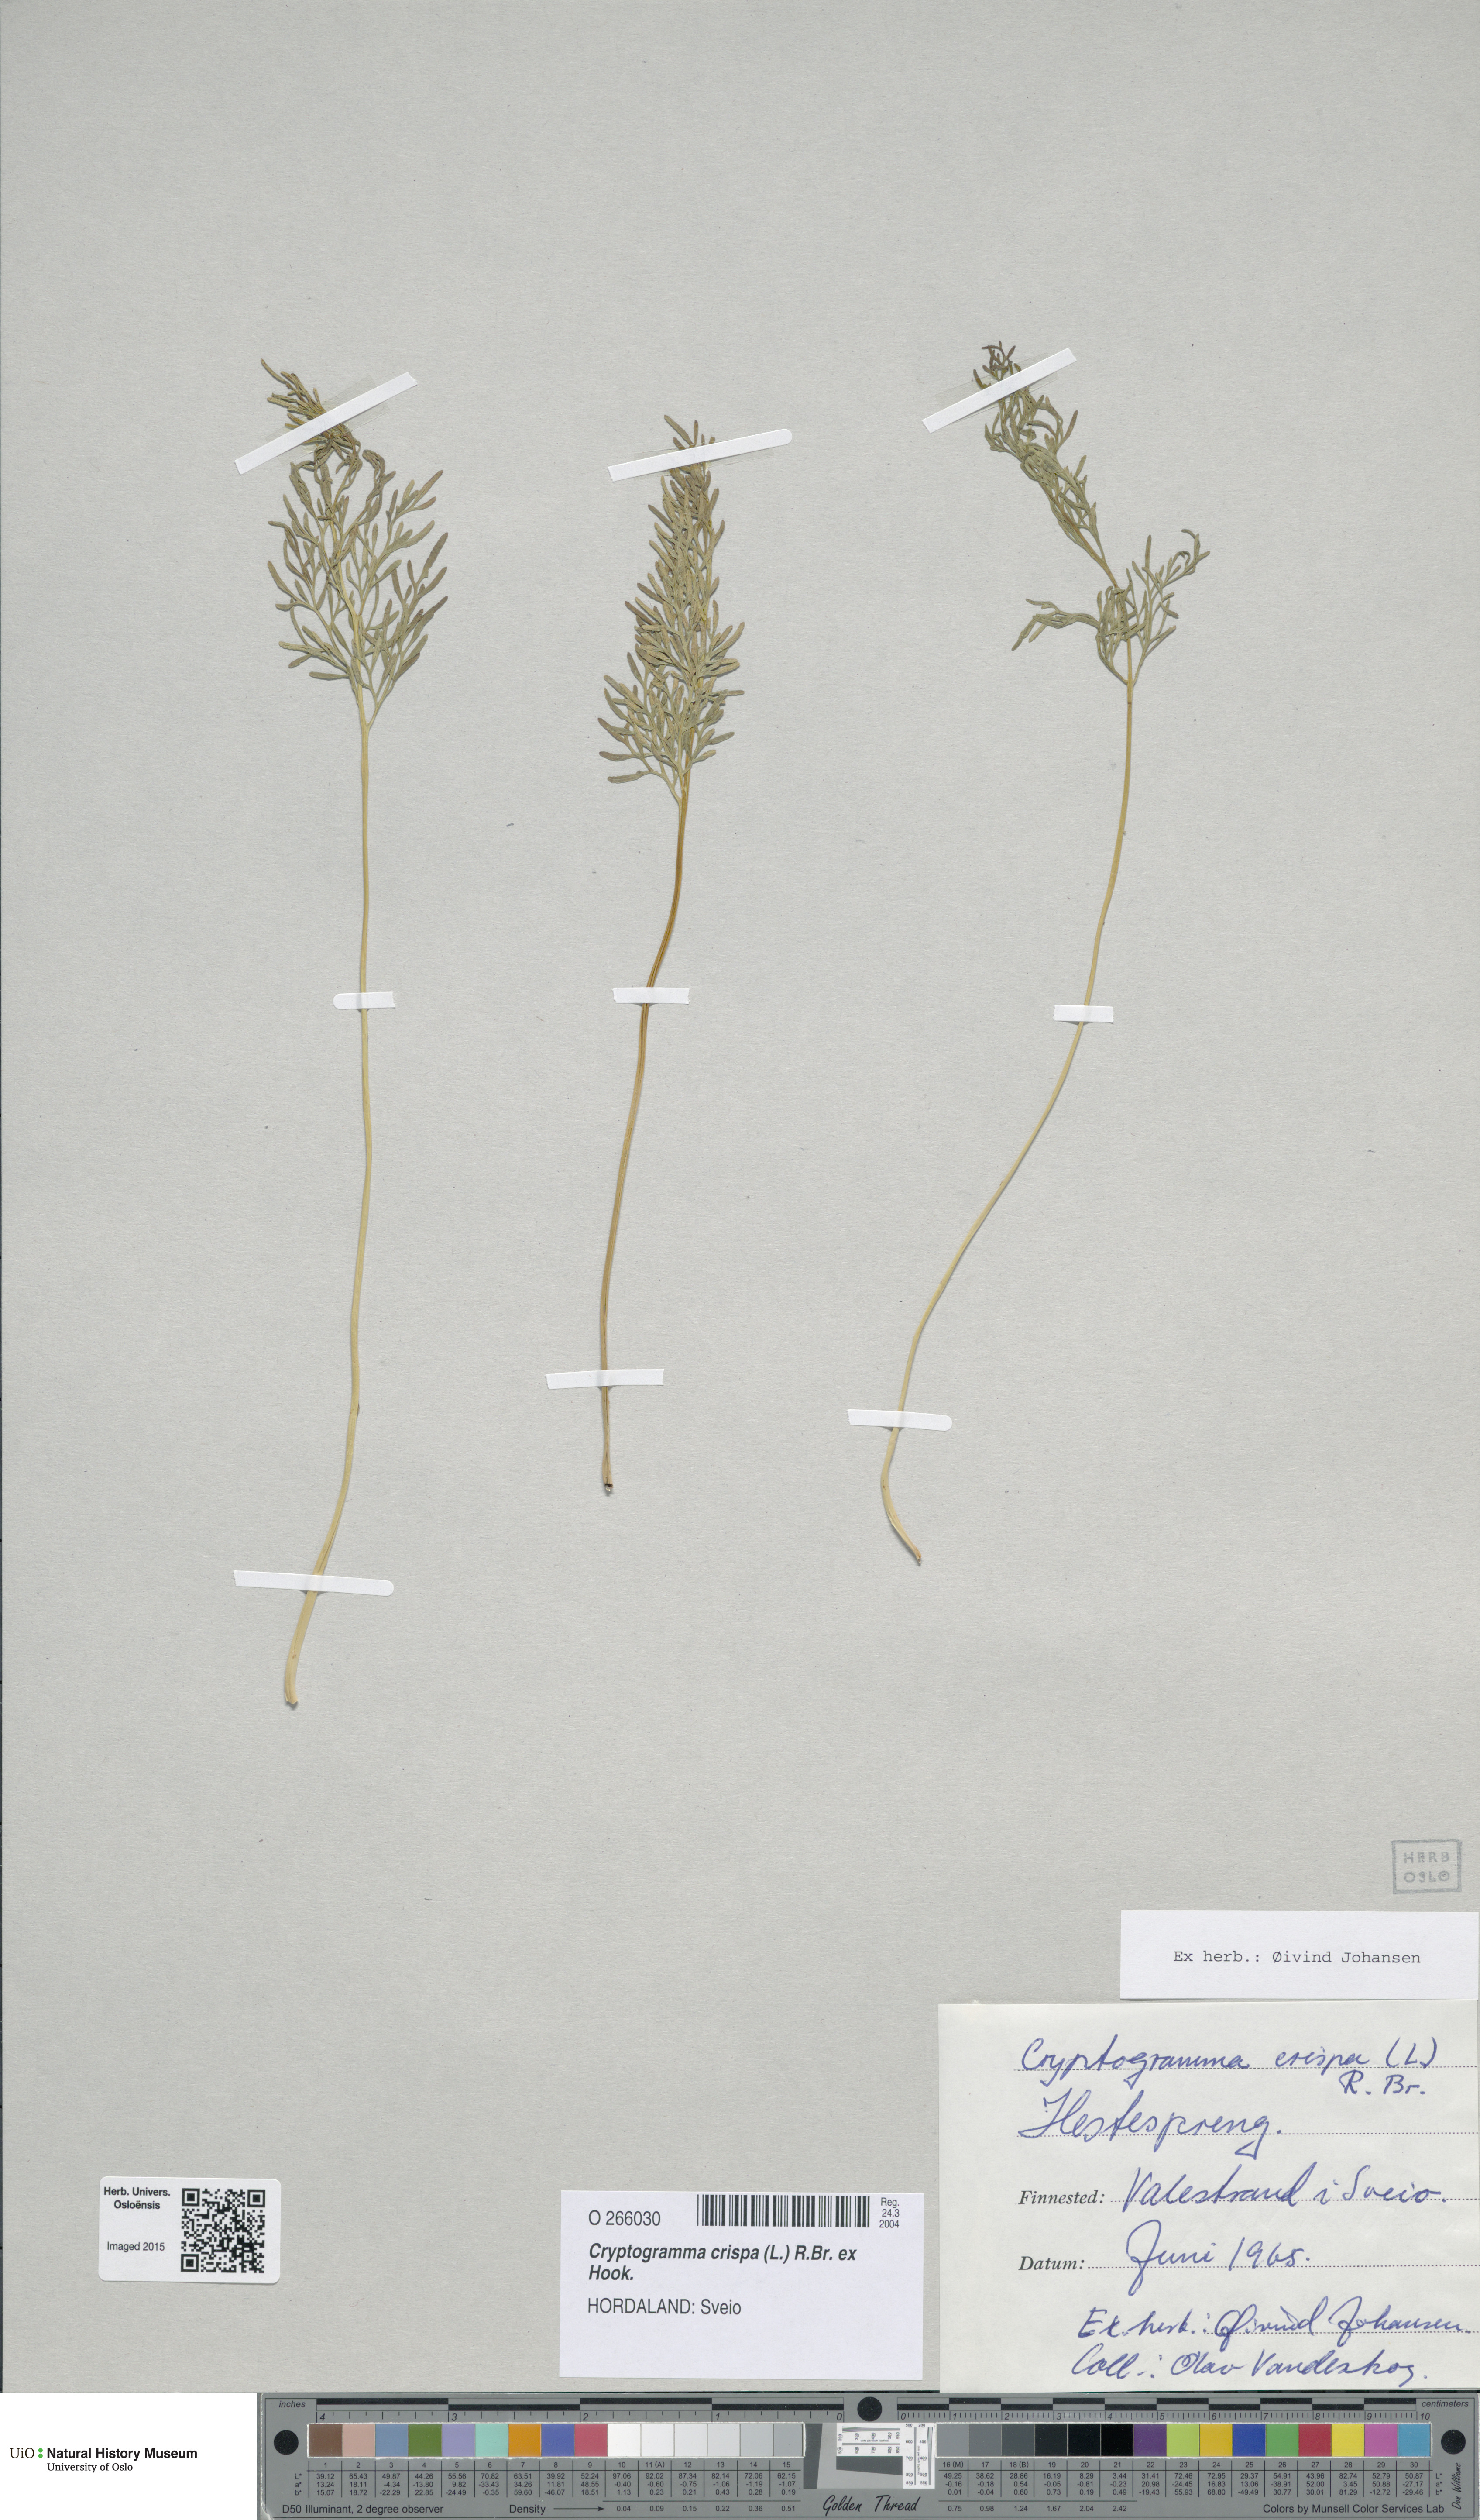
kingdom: Plantae
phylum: Tracheophyta
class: Polypodiopsida
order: Polypodiales
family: Pteridaceae
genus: Cryptogramma
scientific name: Cryptogramma crispa
